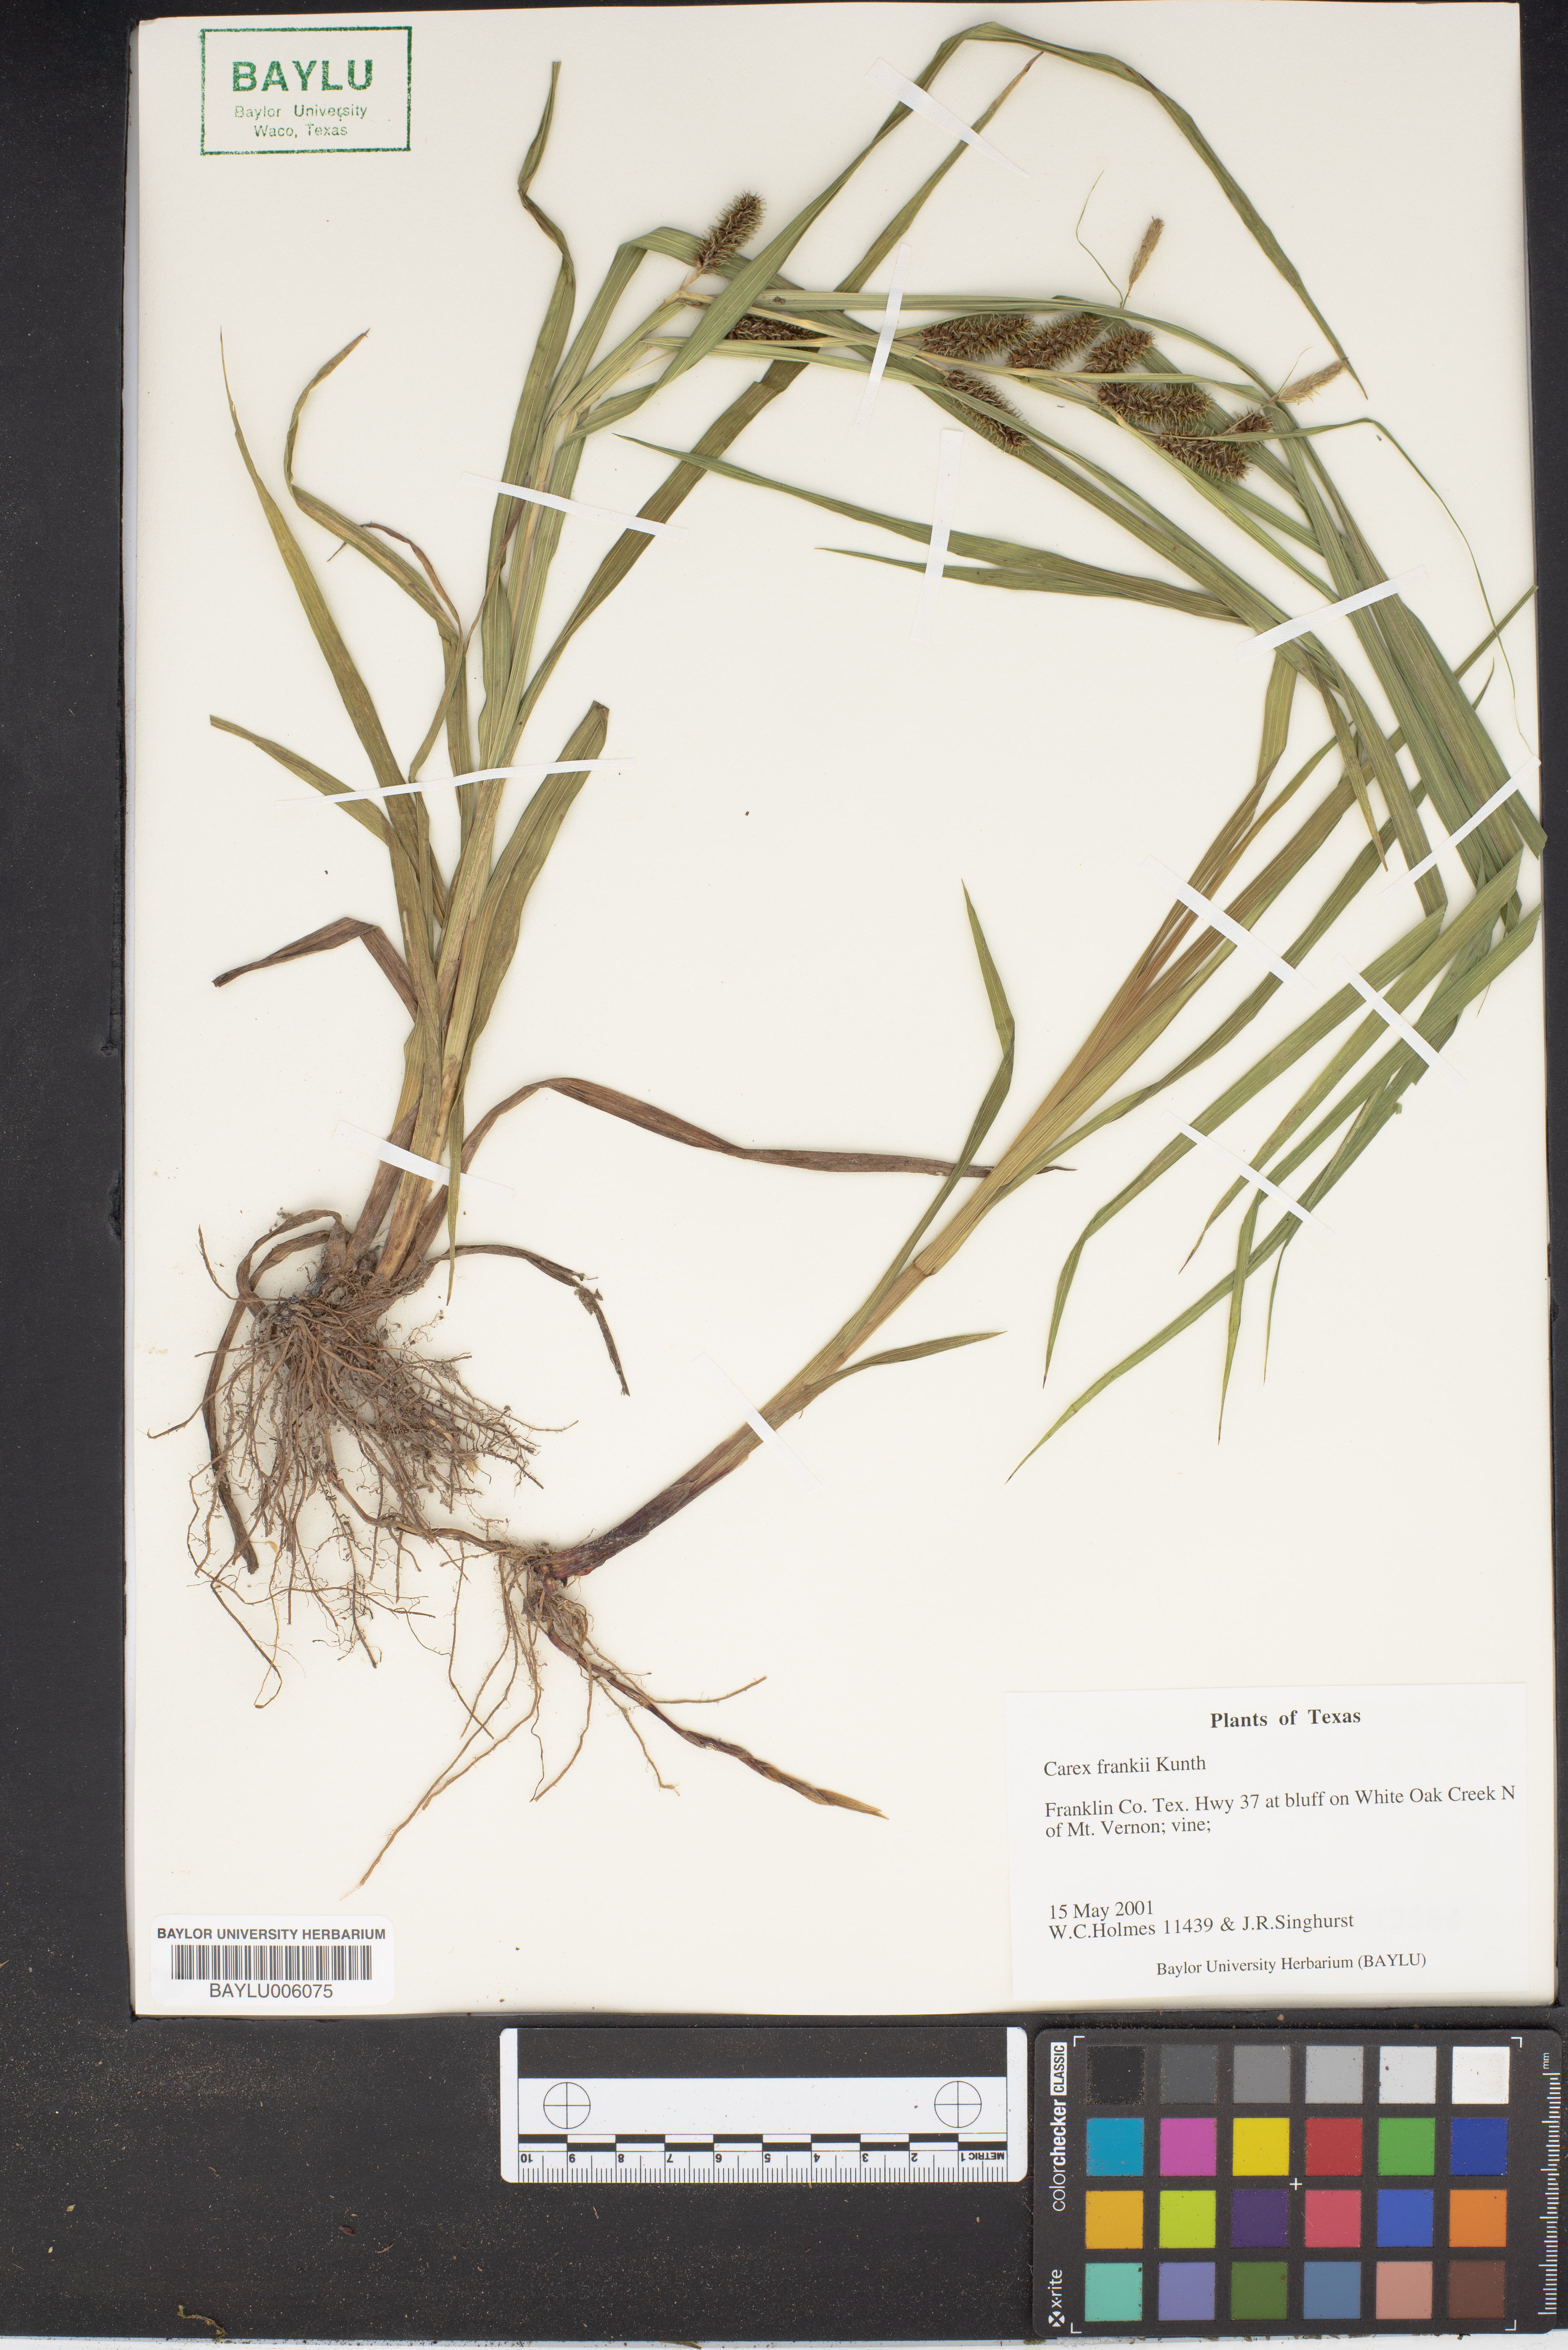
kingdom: Plantae
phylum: Tracheophyta
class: Liliopsida
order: Poales
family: Cyperaceae
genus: Carex
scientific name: Carex frankii
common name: Frank's sedge
